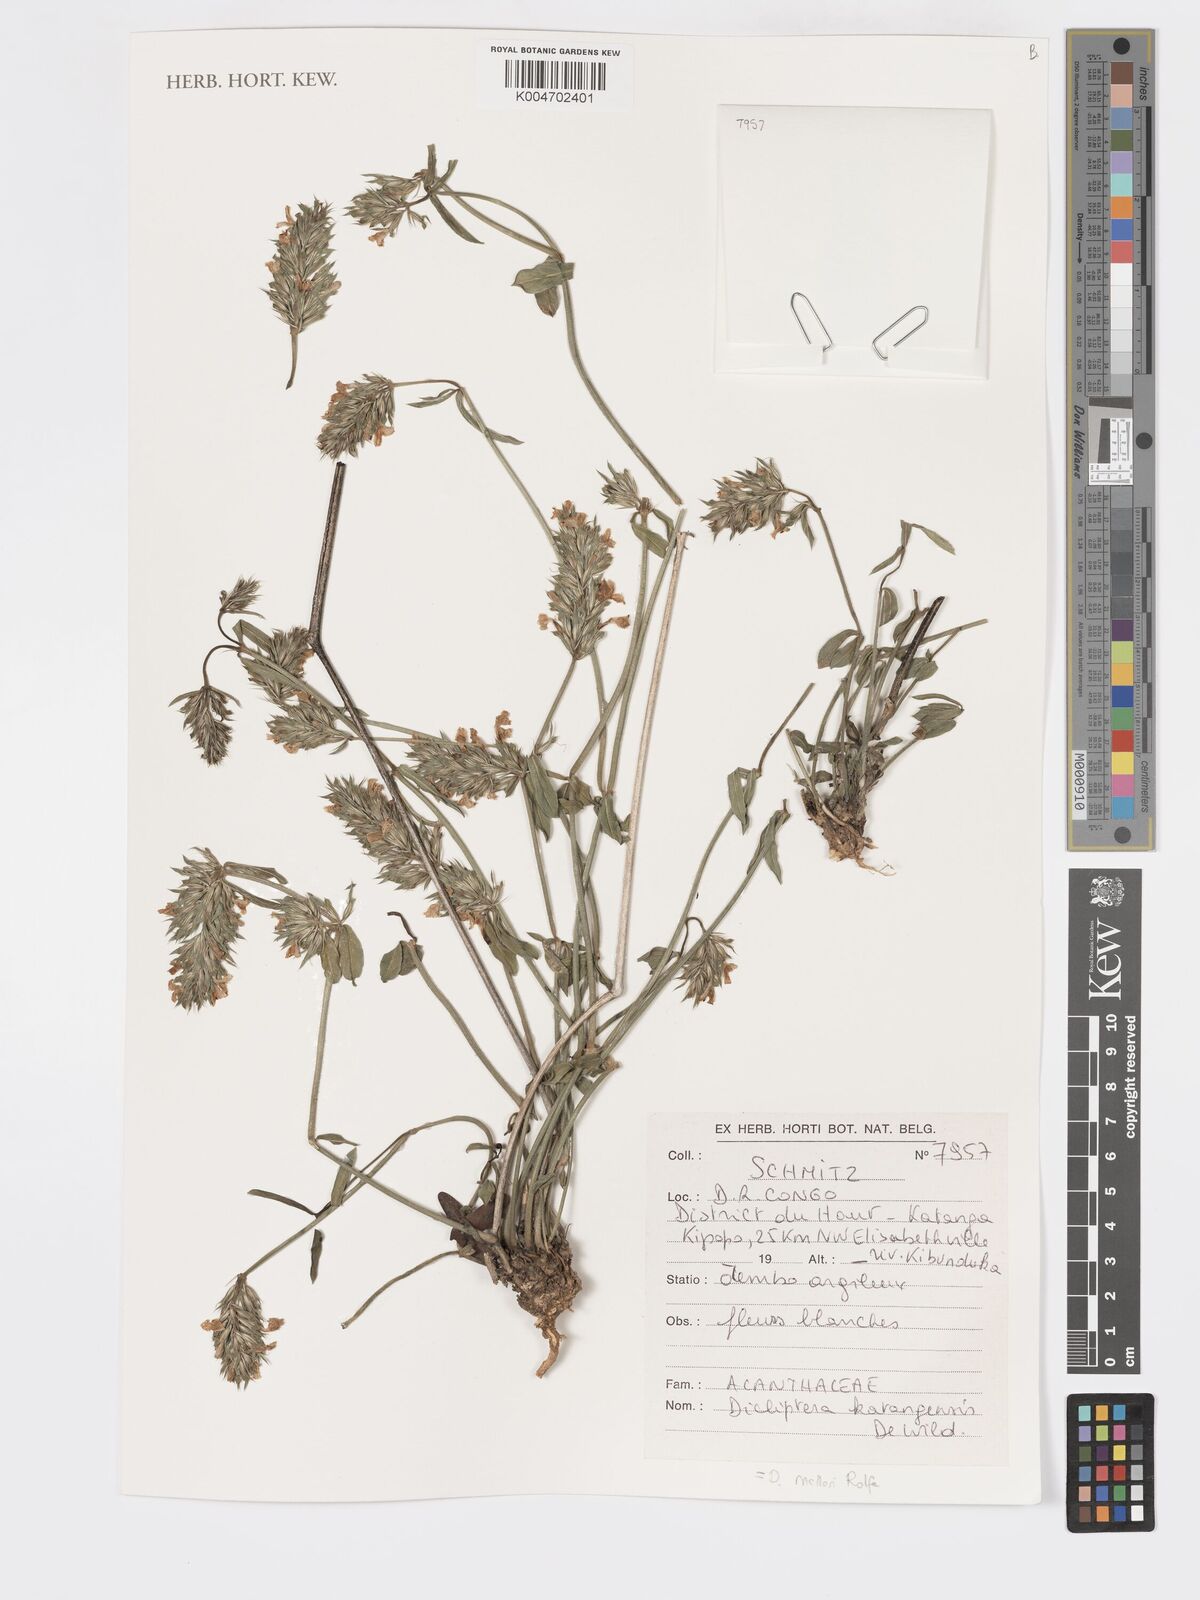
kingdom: Plantae
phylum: Tracheophyta
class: Magnoliopsida
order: Lamiales
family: Acanthaceae
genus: Dicliptera
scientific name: Dicliptera melleri
